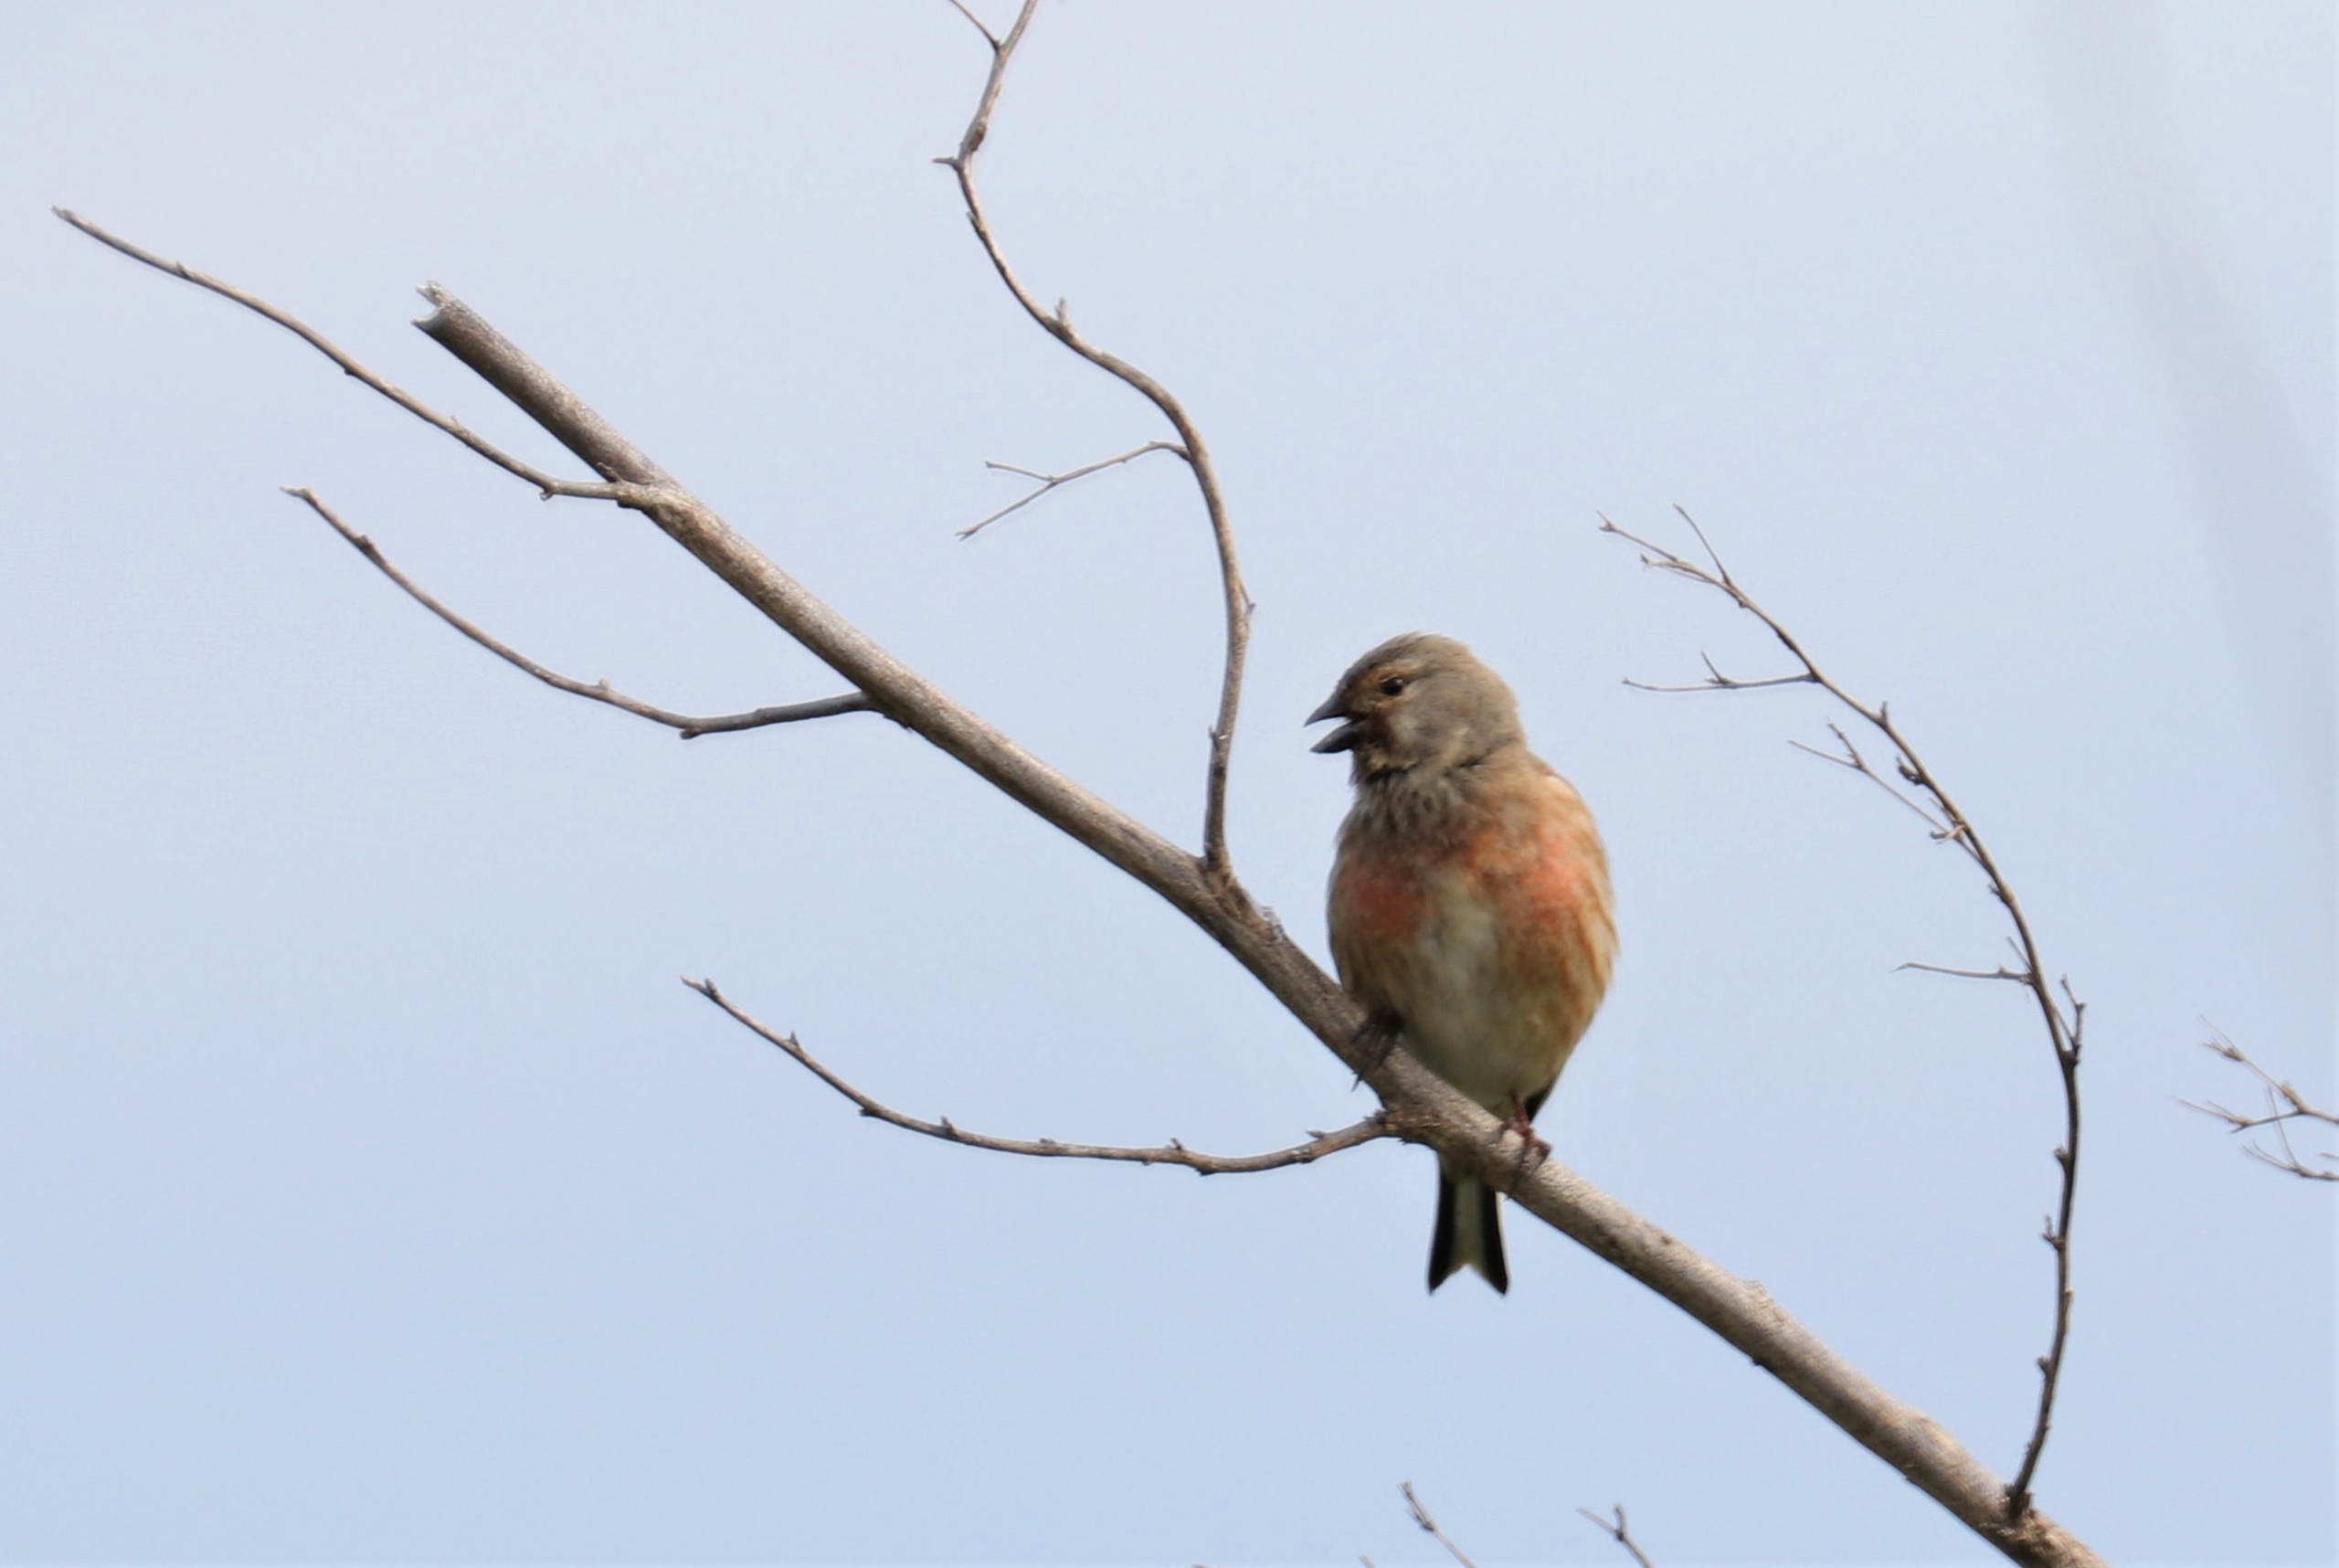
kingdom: Animalia
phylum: Chordata
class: Aves
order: Passeriformes
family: Fringillidae
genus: Linaria
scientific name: Linaria cannabina
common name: Tornirisk
